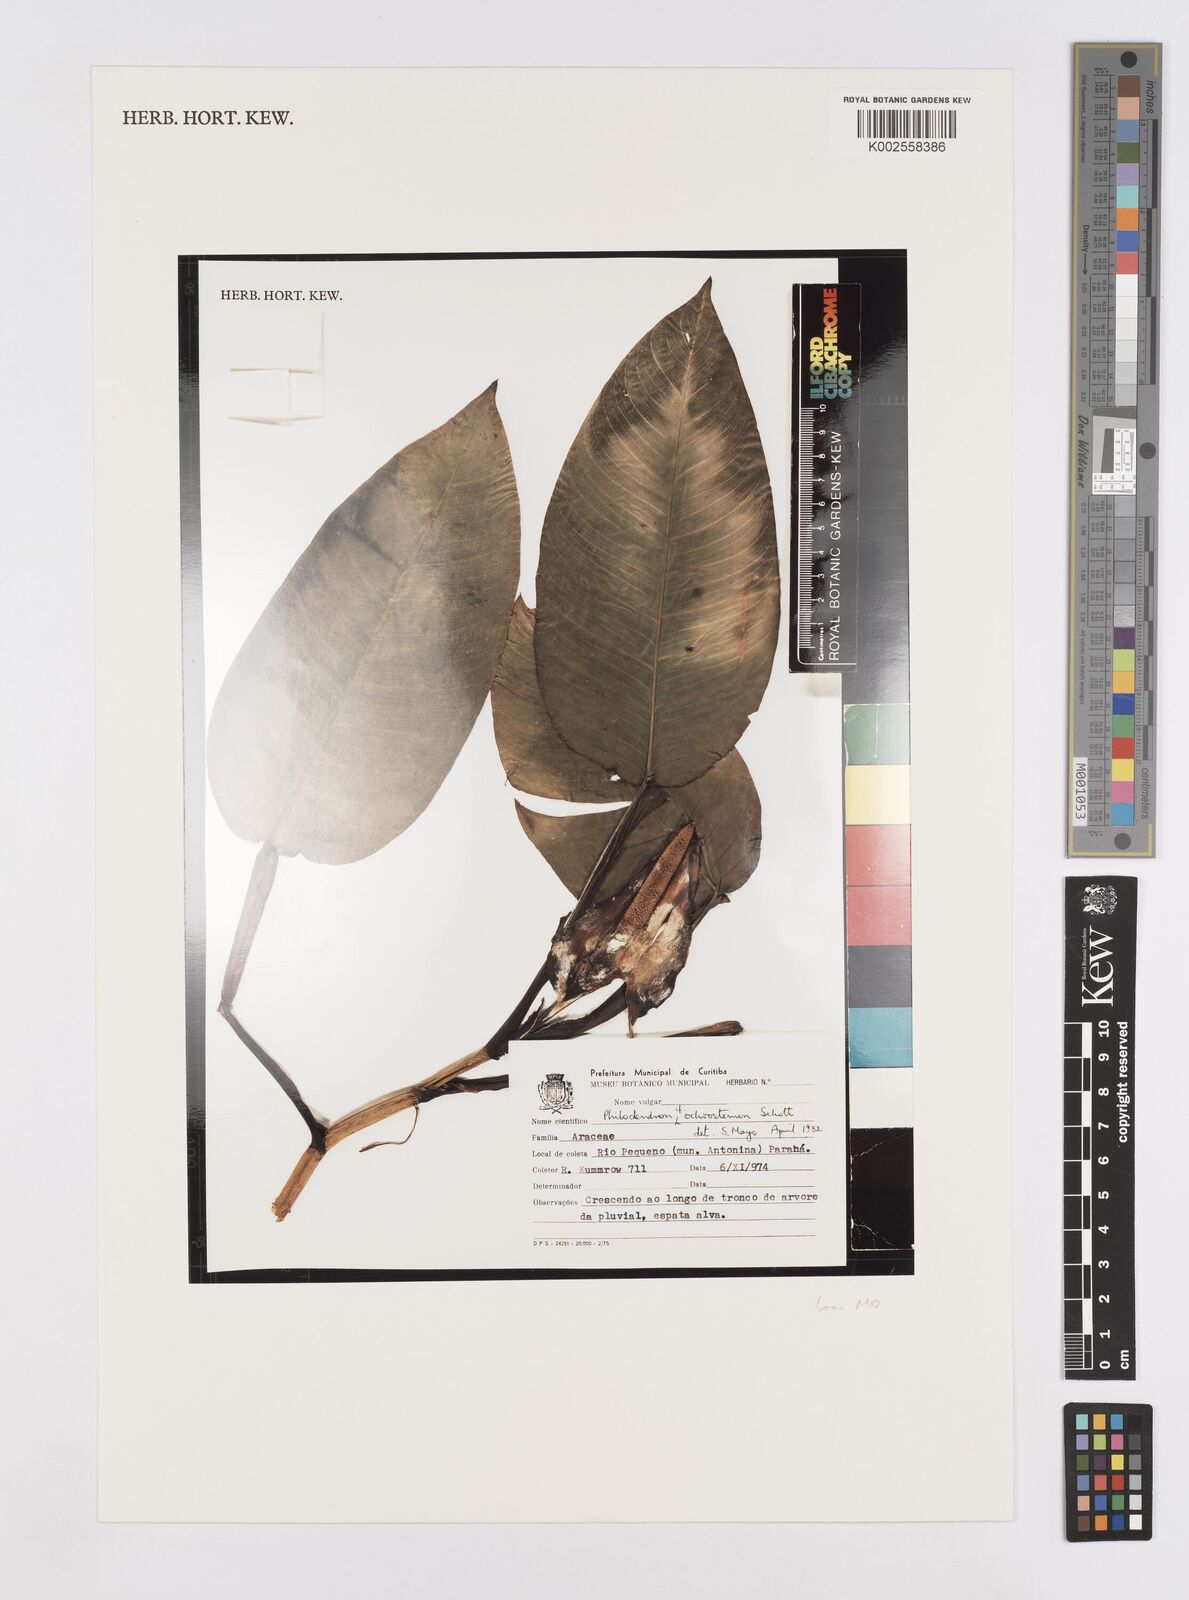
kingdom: Plantae
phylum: Tracheophyta
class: Liliopsida
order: Alismatales
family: Araceae
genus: Philodendron
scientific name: Philodendron ochrostemon
